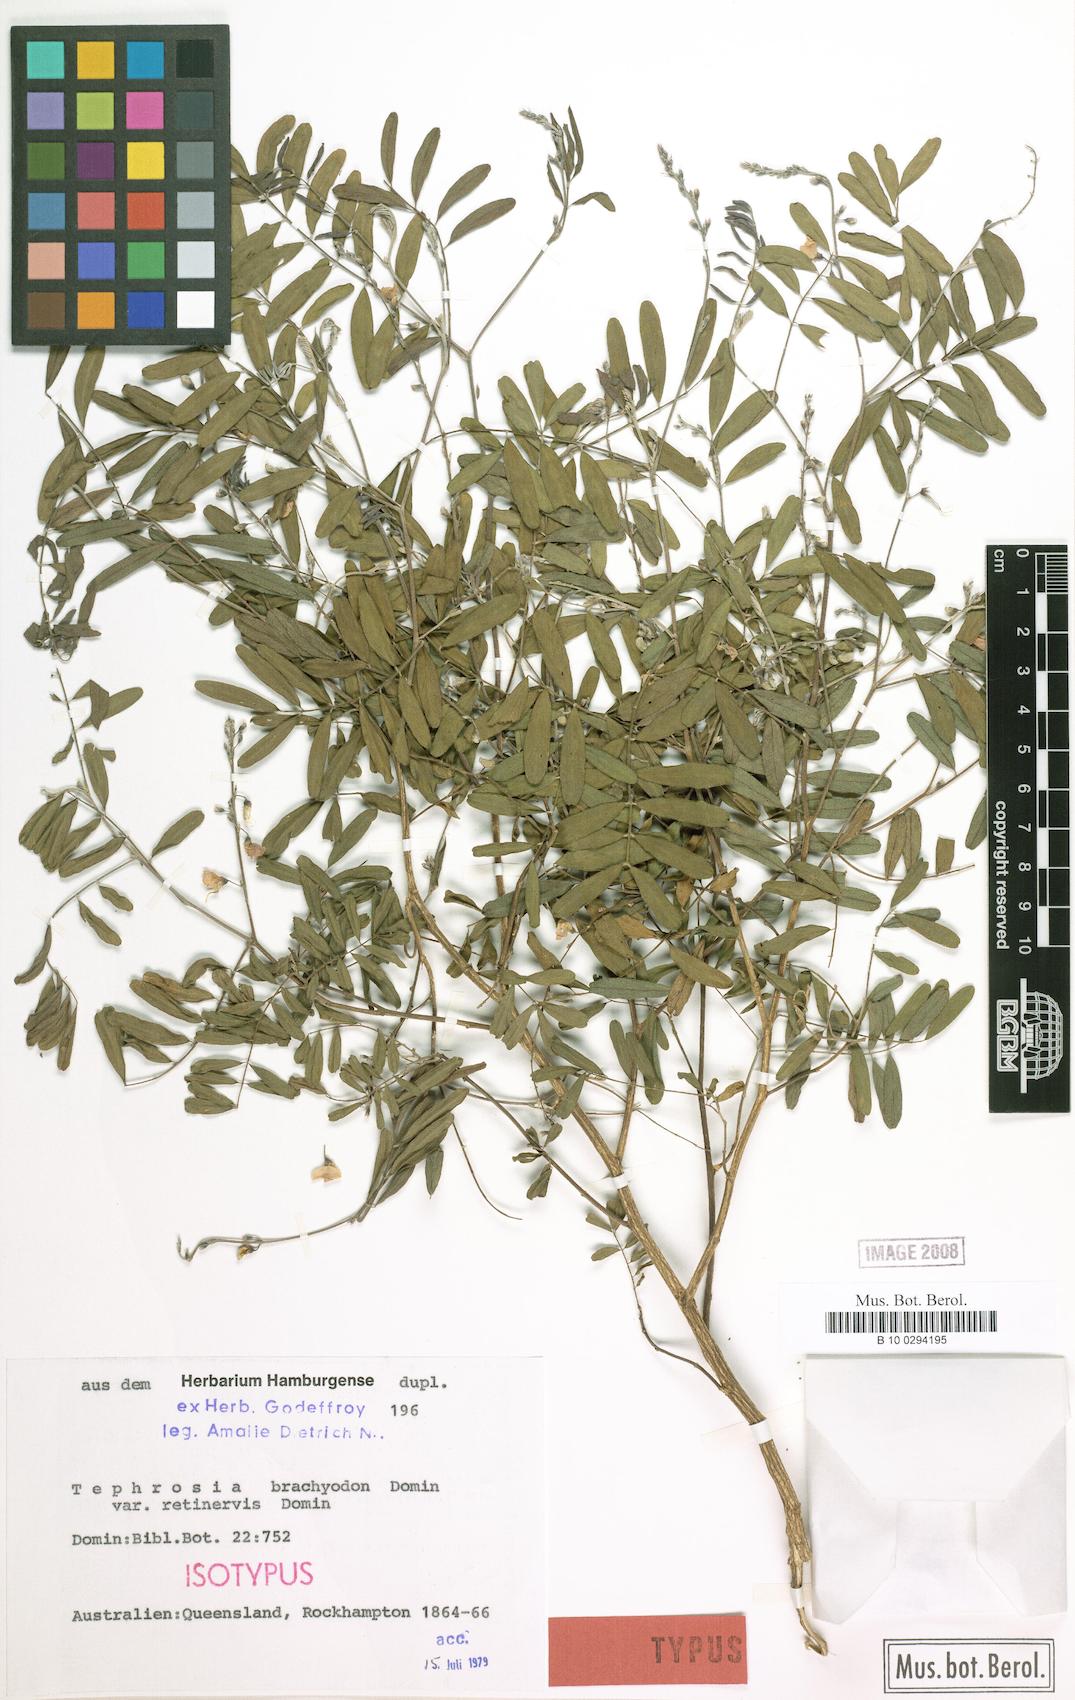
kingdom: Plantae
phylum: Tracheophyta
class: Magnoliopsida
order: Fabales
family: Fabaceae
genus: Tephrosia
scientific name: Tephrosia brachyodon
